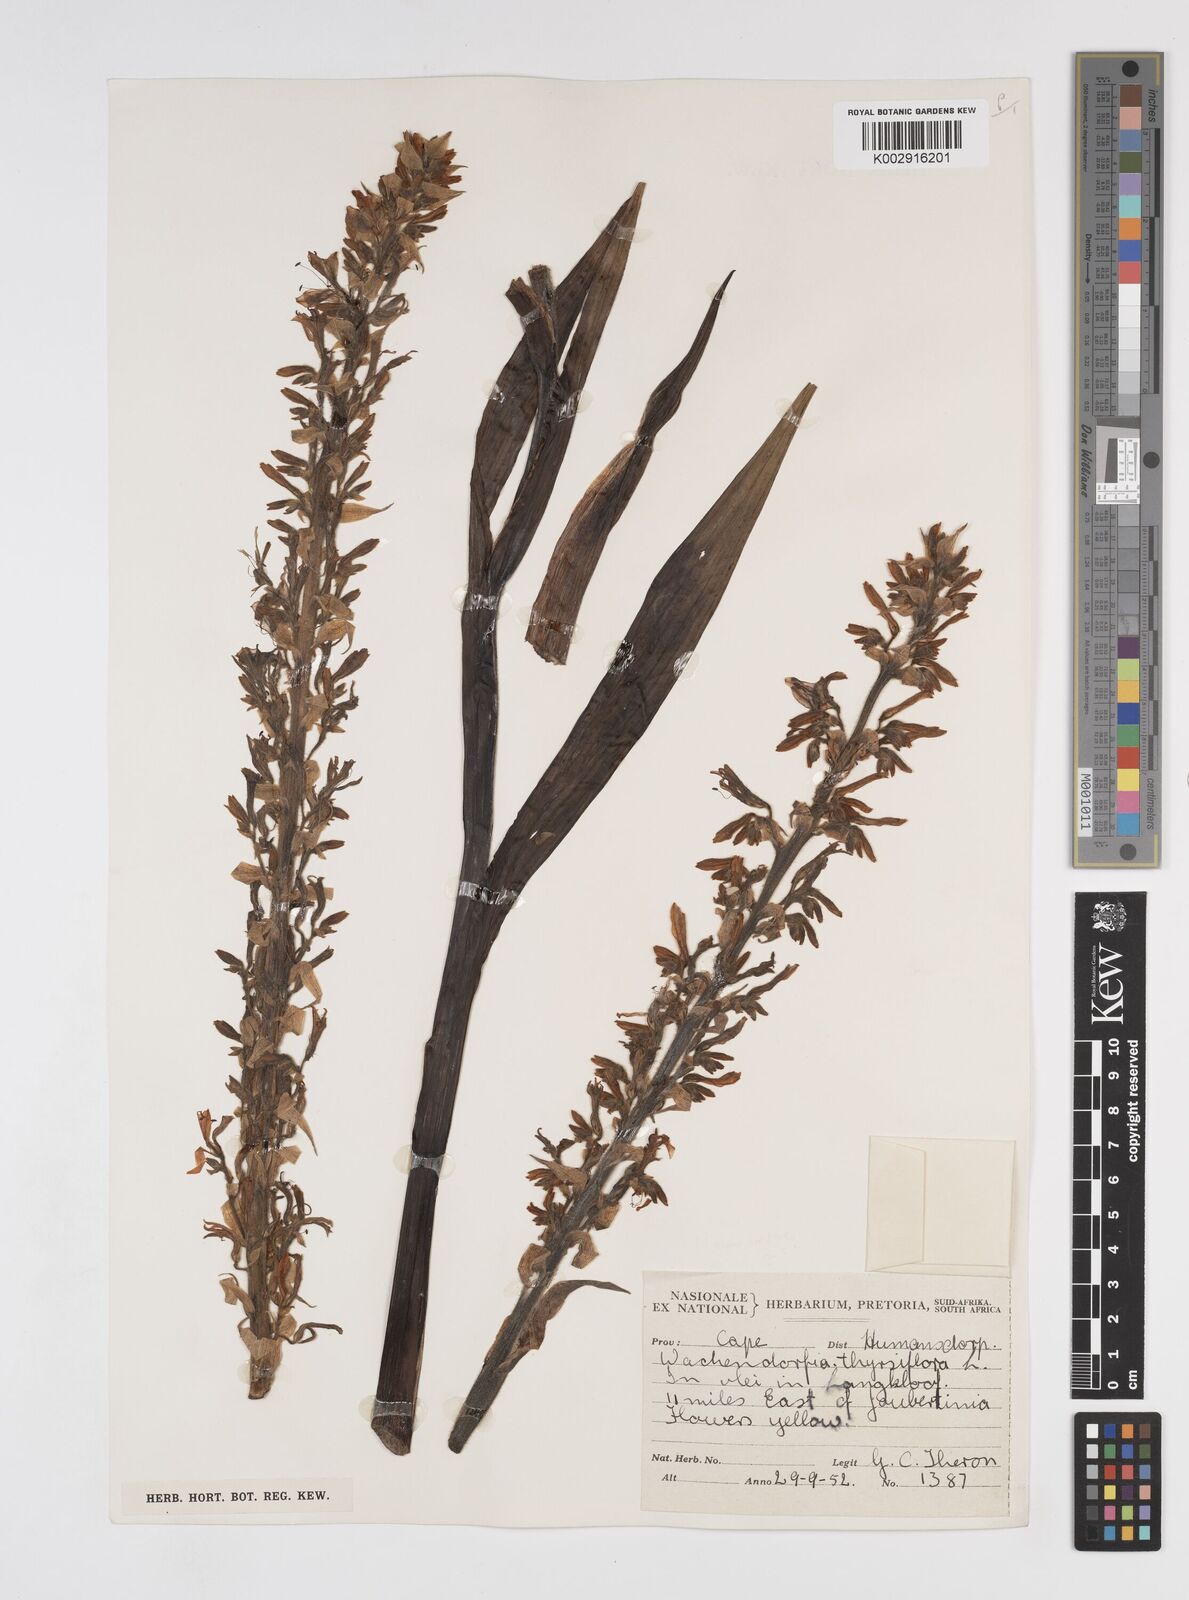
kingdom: Plantae
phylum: Tracheophyta
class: Liliopsida
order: Commelinales
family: Haemodoraceae
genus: Wachendorfia
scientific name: Wachendorfia thyrsiflora
